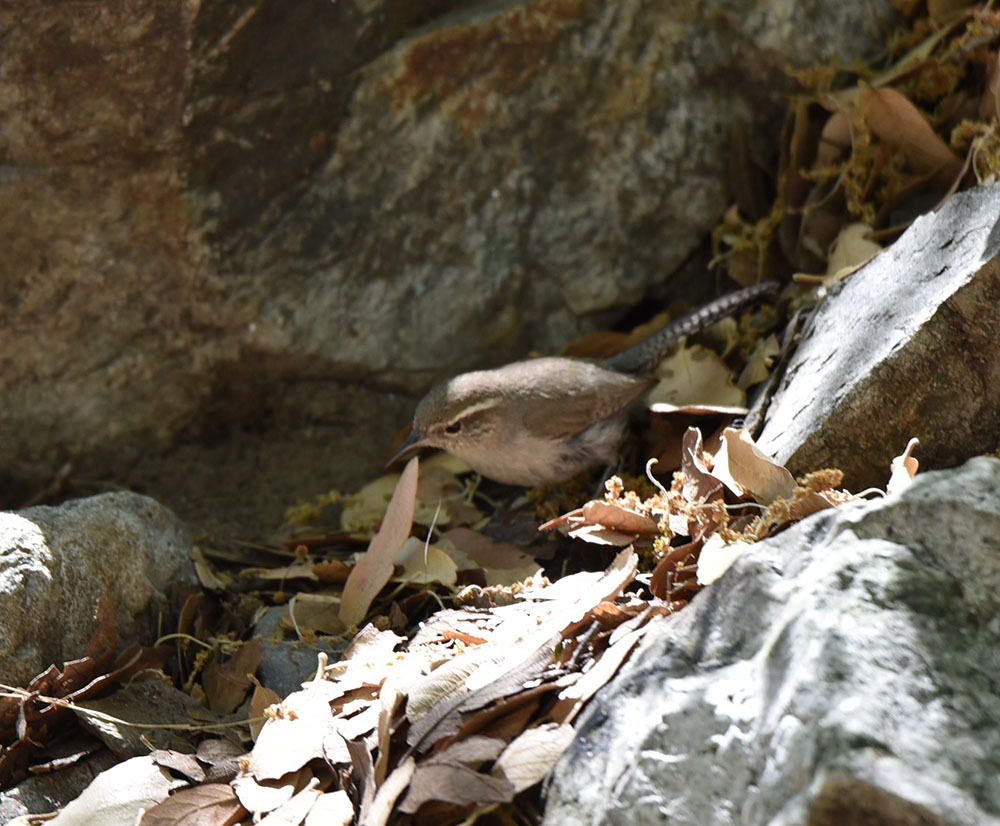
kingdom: Animalia
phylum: Chordata
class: Aves
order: Passeriformes
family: Troglodytidae
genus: Thryomanes
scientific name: Thryomanes bewickii
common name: Bewick's wren
